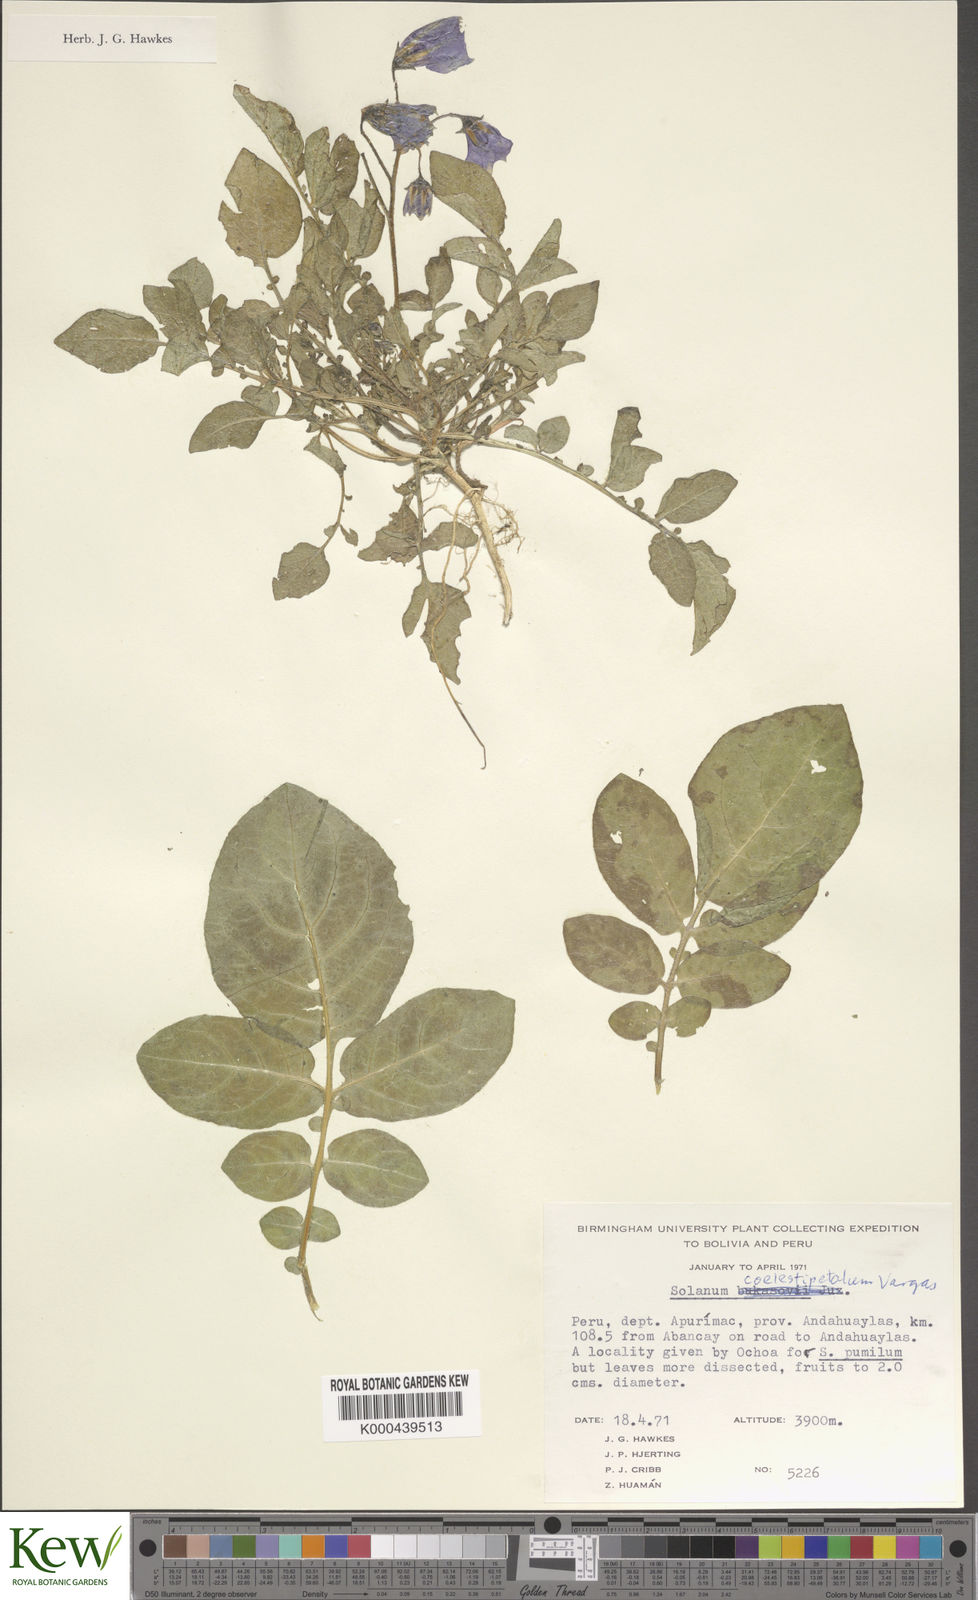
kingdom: Plantae
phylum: Tracheophyta
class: Magnoliopsida
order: Solanales
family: Solanaceae
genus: Solanum
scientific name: Solanum candolleanum
